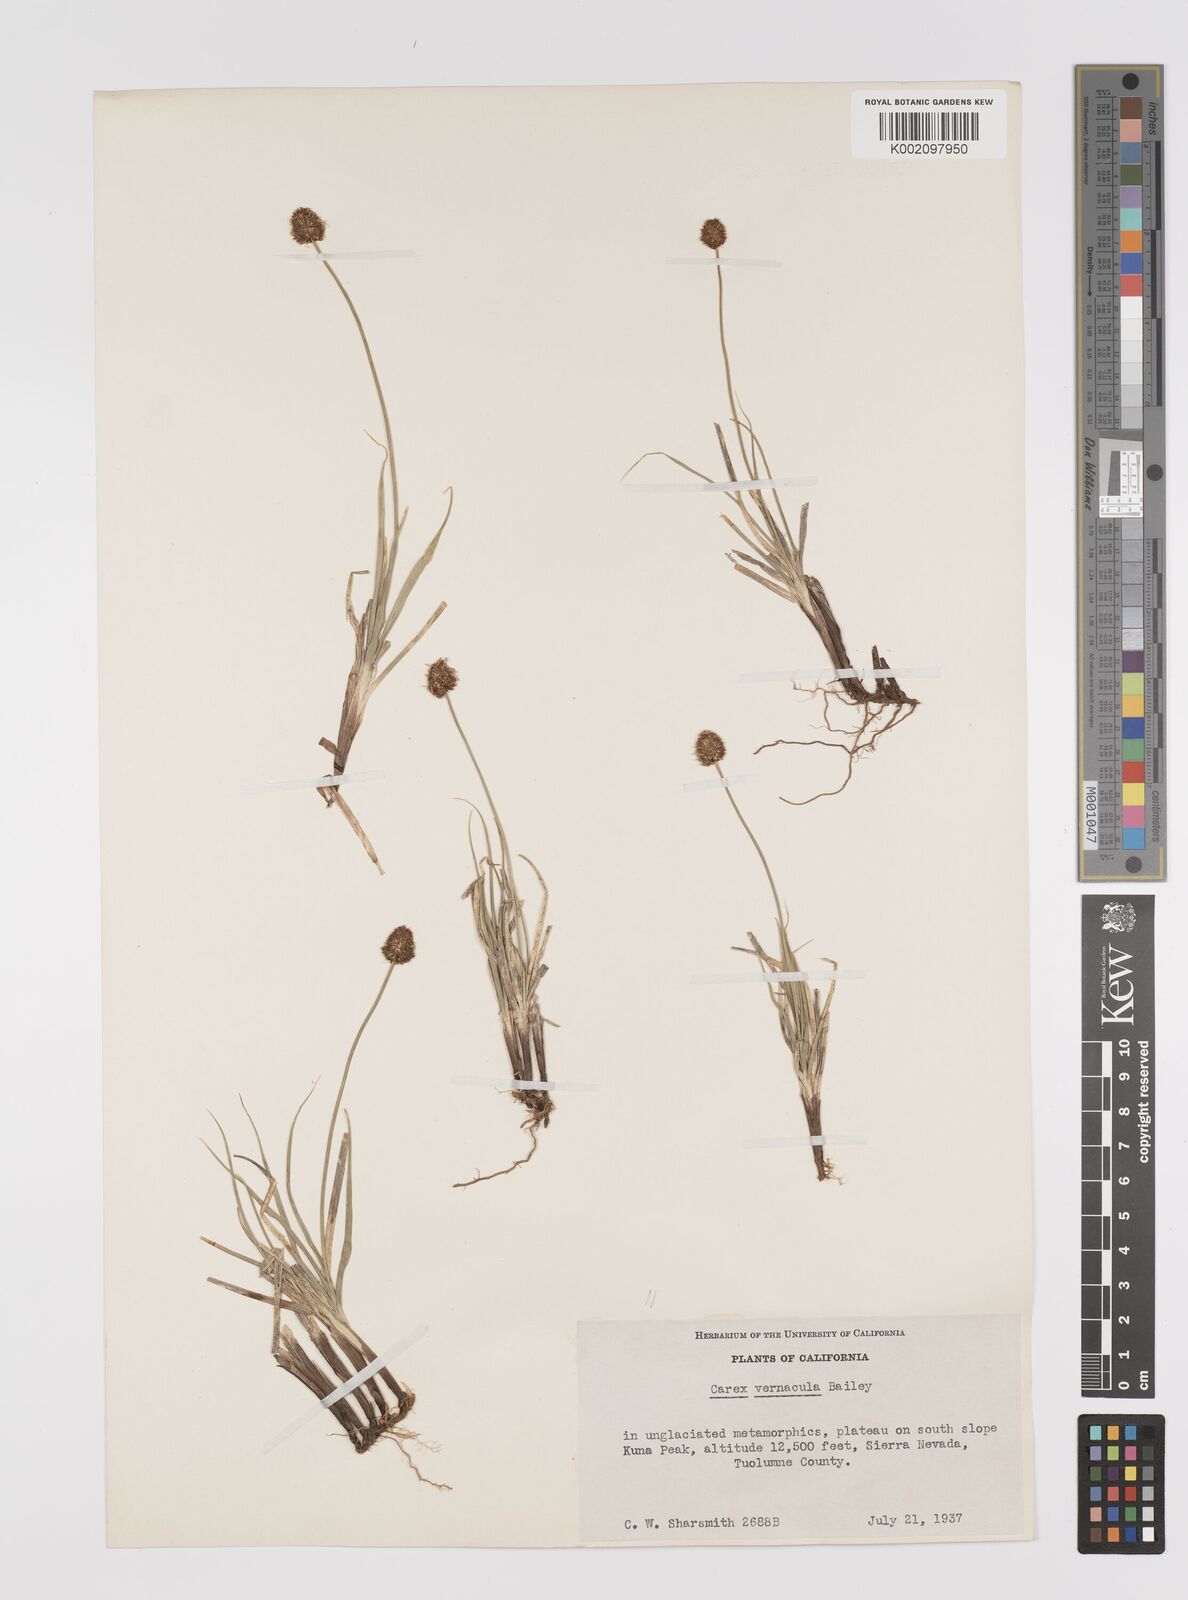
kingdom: Plantae
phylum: Tracheophyta
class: Liliopsida
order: Poales
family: Cyperaceae
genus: Carex
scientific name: Carex vernacula
